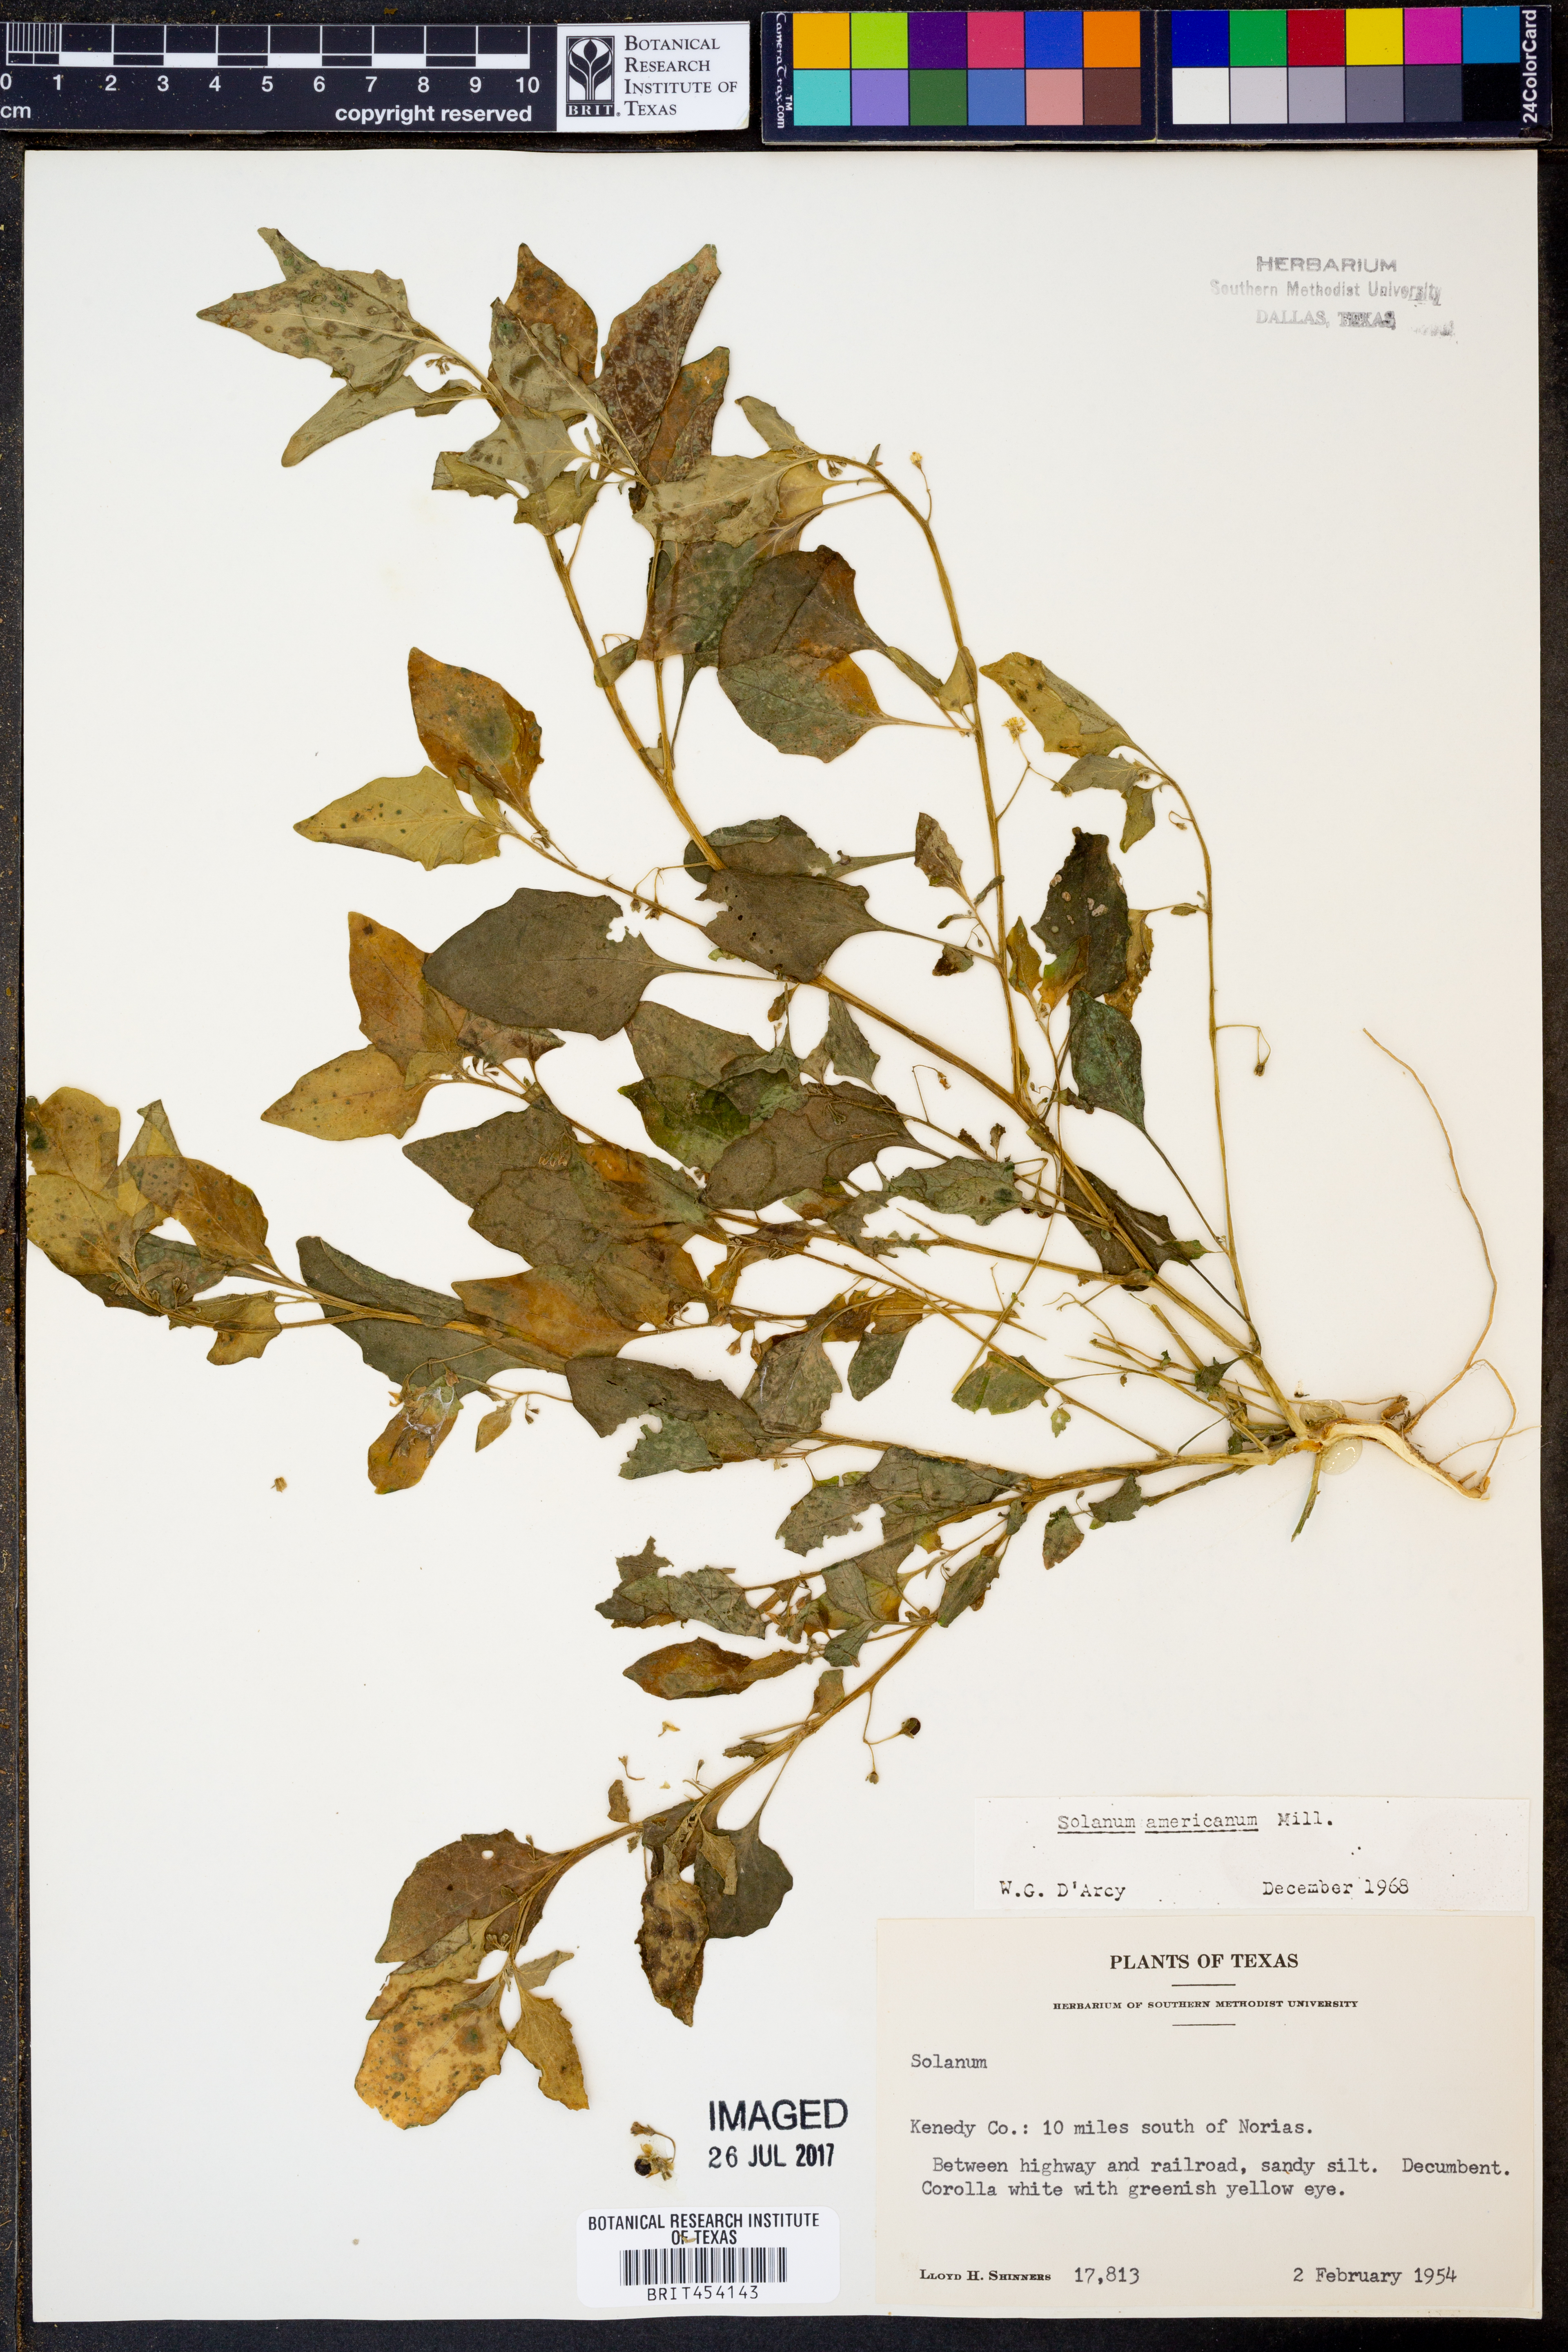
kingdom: Plantae
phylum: Tracheophyta
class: Magnoliopsida
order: Solanales
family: Solanaceae
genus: Solanum
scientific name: Solanum americanum
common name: American black nightshade
